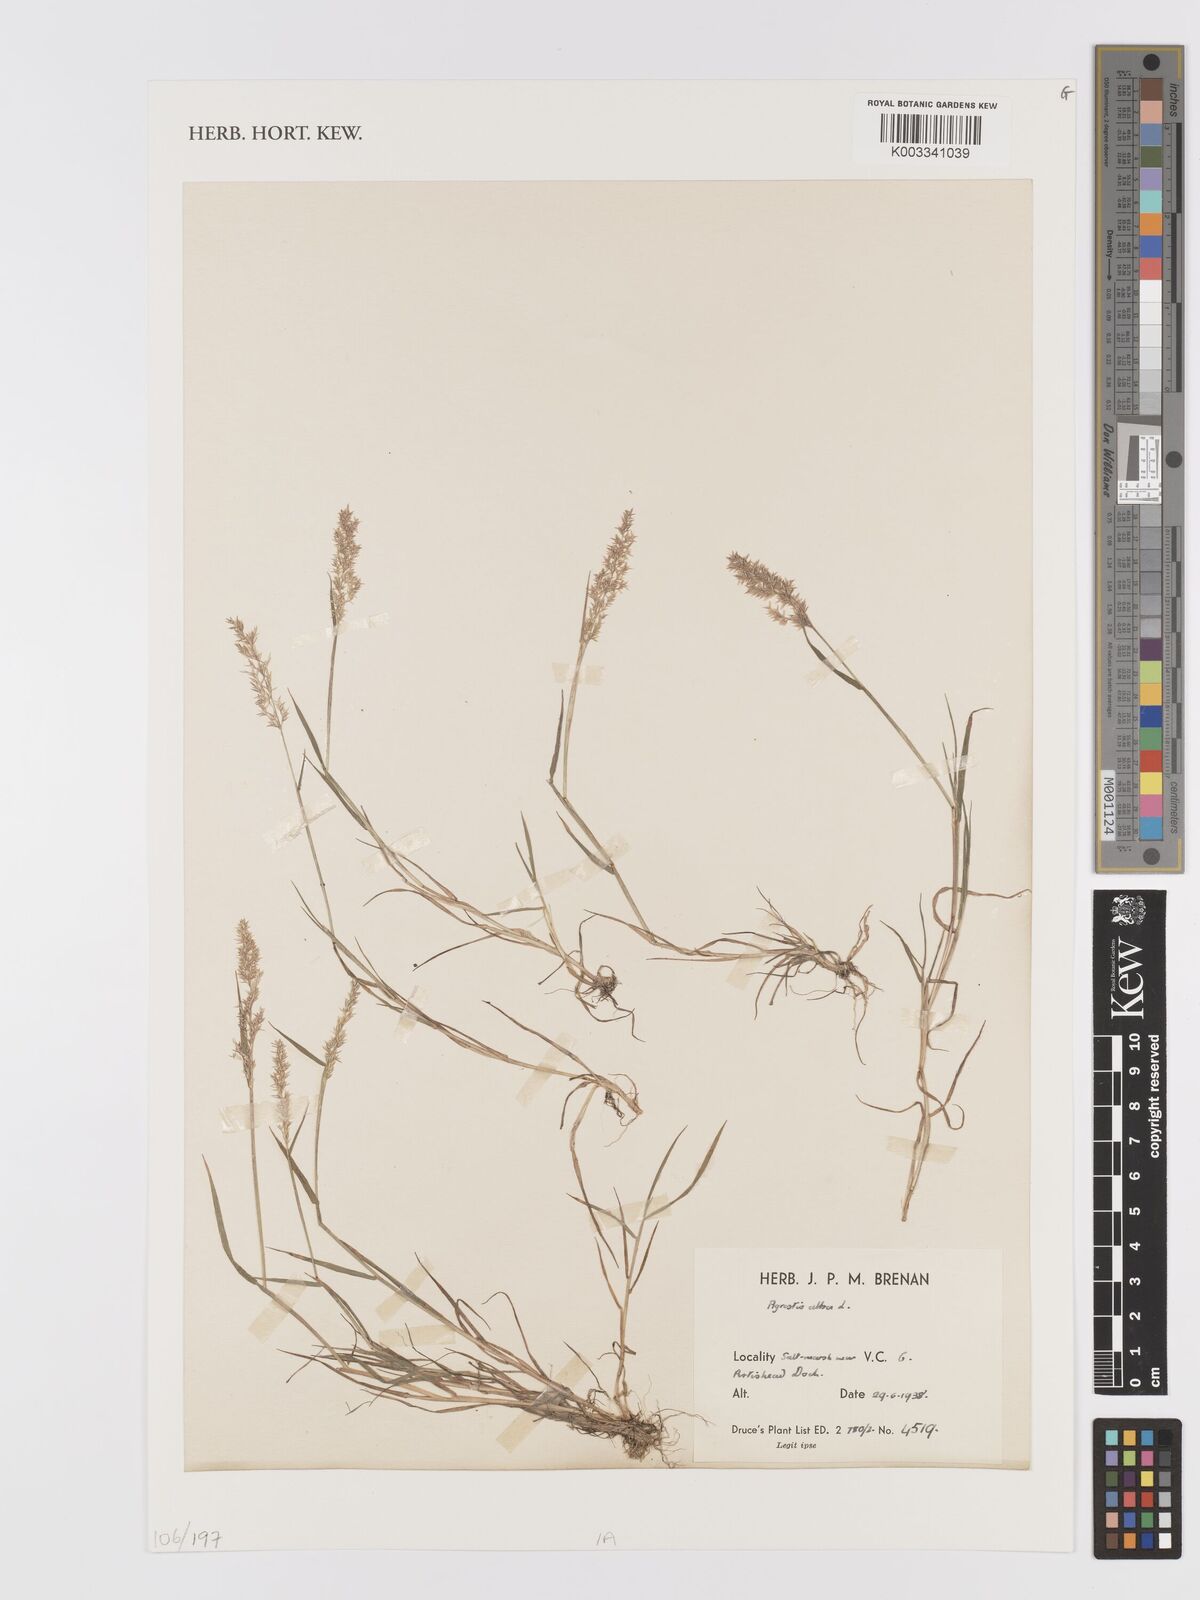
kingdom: Plantae
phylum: Tracheophyta
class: Liliopsida
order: Poales
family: Poaceae
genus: Agrostis
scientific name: Agrostis gigantea
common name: Black bent
